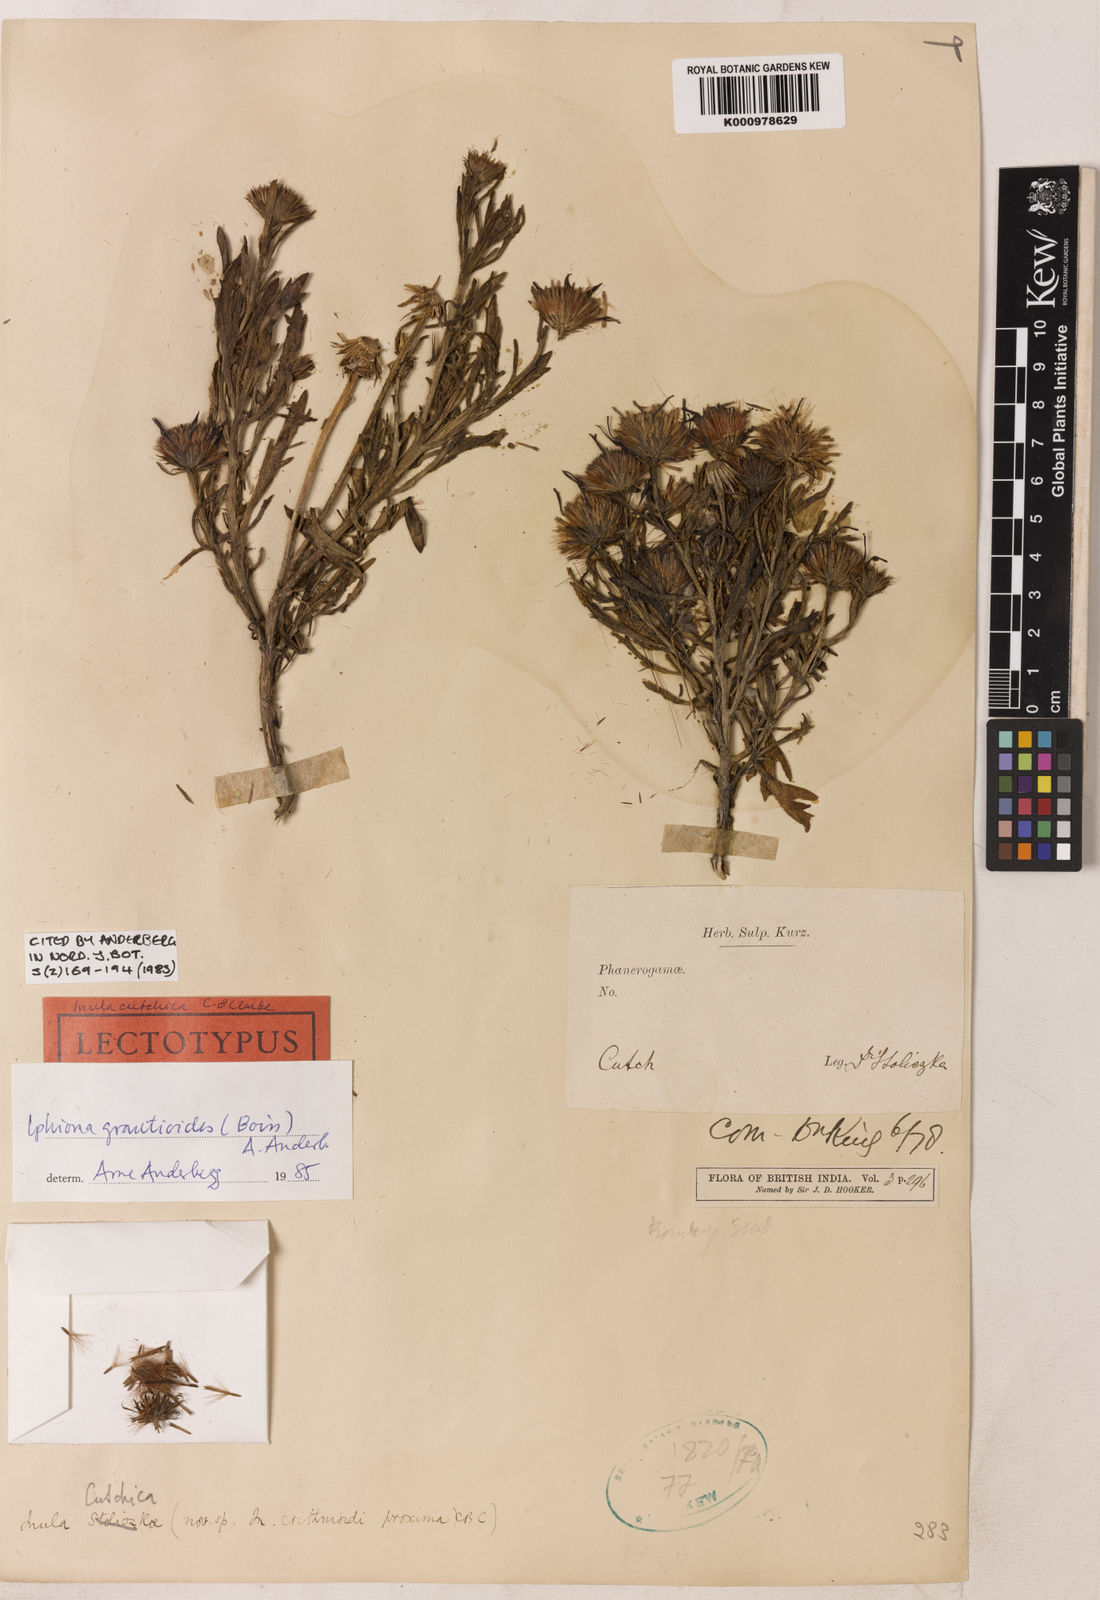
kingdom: Plantae
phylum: Tracheophyta
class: Magnoliopsida
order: Asterales
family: Asteraceae
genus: Iphiona
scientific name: Iphiona grantioides
